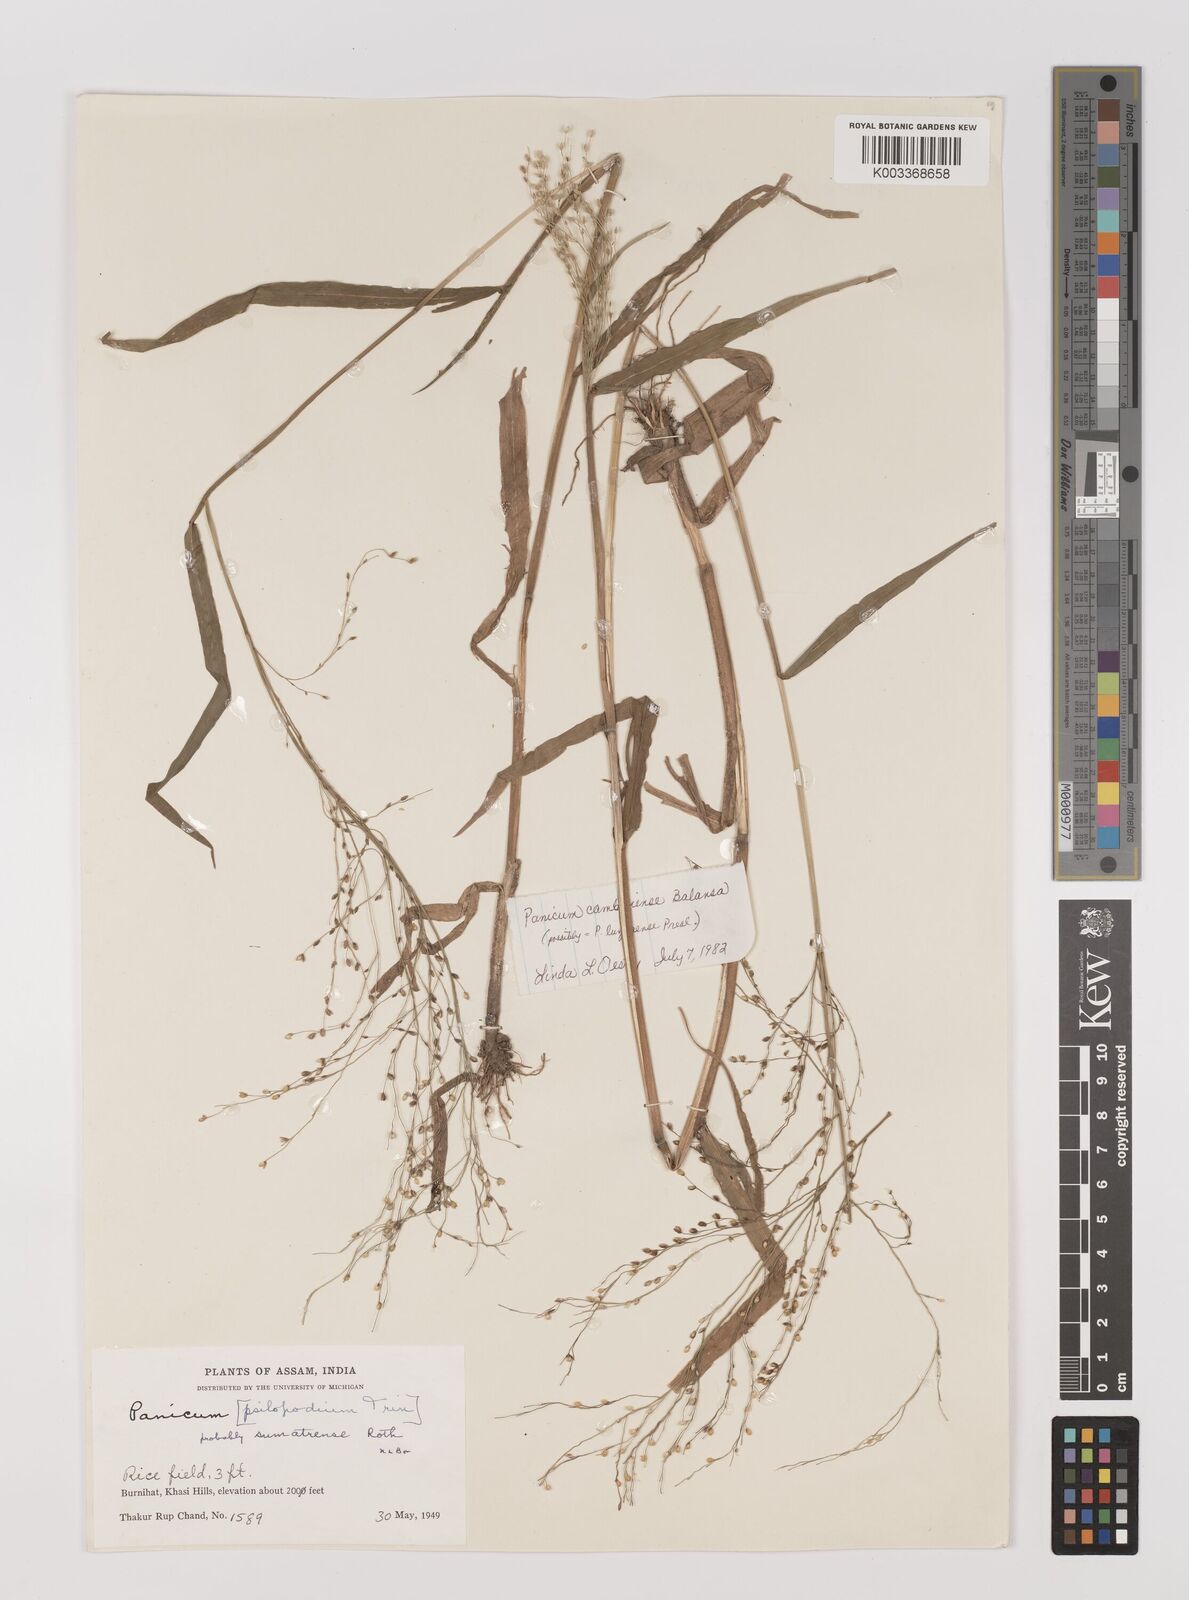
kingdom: Plantae
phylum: Tracheophyta
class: Liliopsida
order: Poales
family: Poaceae
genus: Panicum
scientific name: Panicum luzonense
